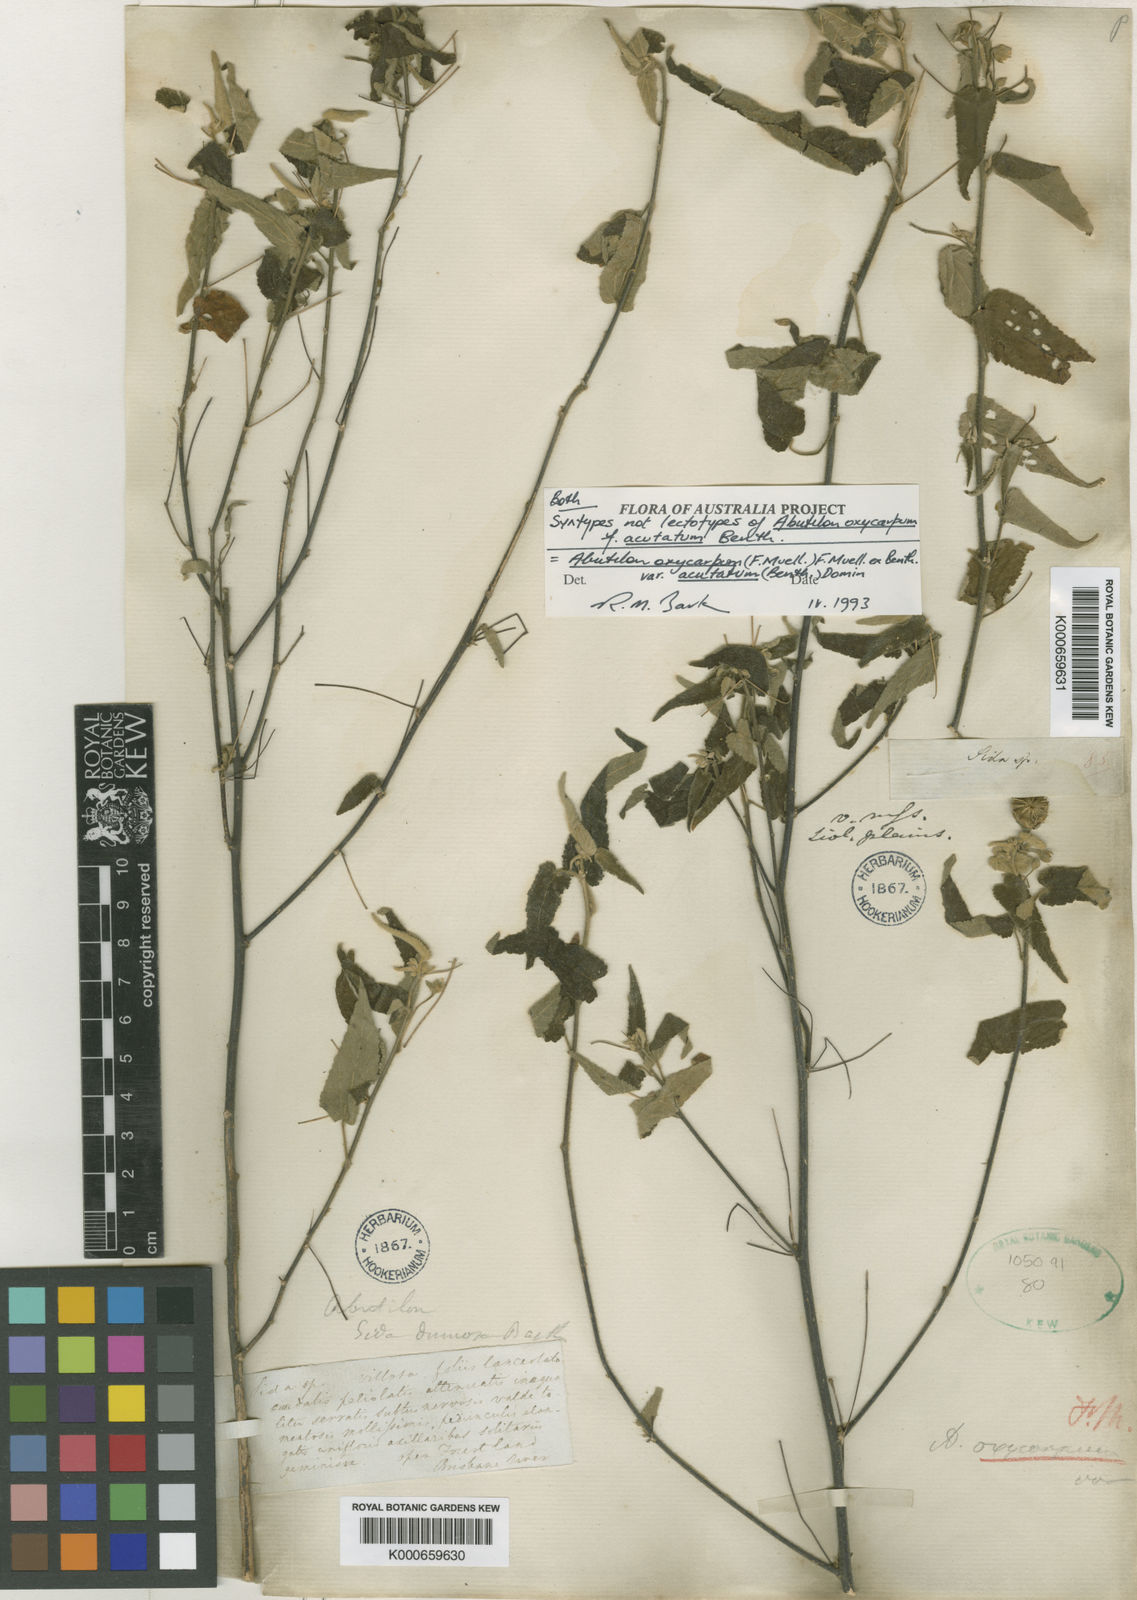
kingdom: Plantae
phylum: Tracheophyta
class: Magnoliopsida
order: Malvales
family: Malvaceae
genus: Abutilon
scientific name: Abutilon oxycarpum
